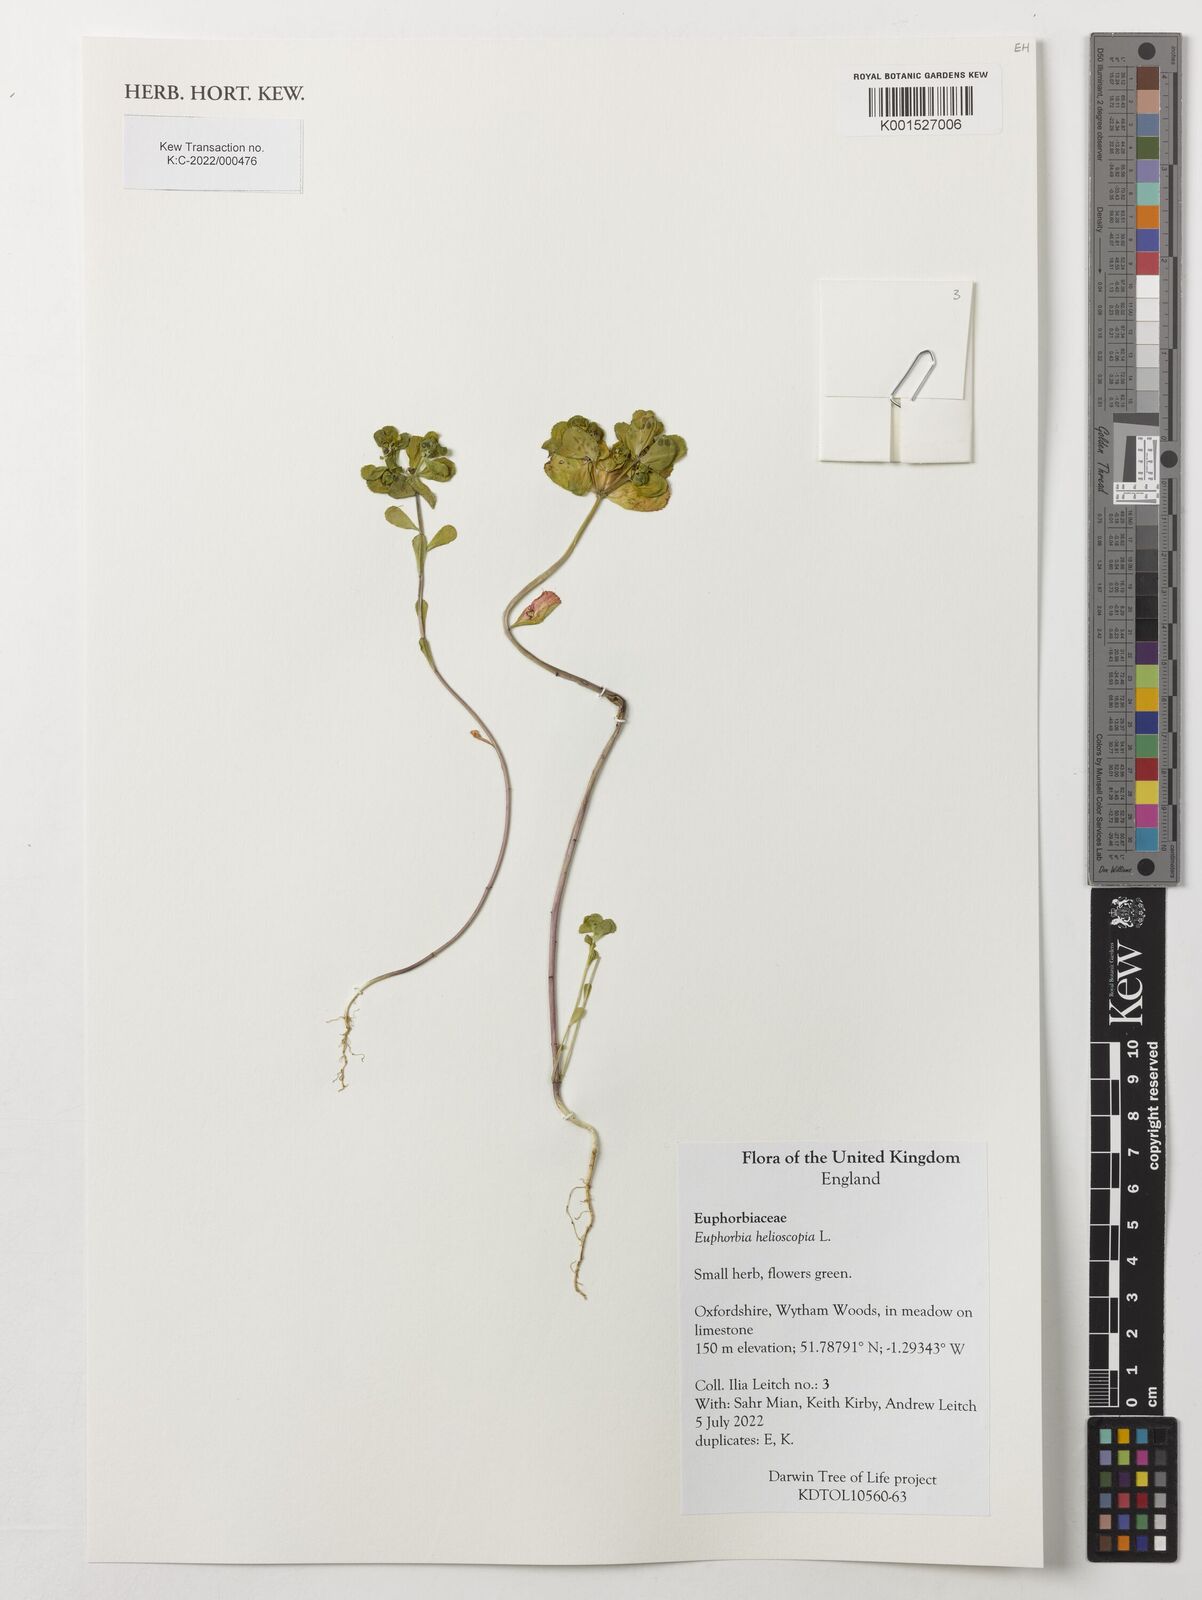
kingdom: Plantae
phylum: Tracheophyta
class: Magnoliopsida
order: Malpighiales
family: Euphorbiaceae
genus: Euphorbia
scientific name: Euphorbia helioscopia
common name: Sun spurge
